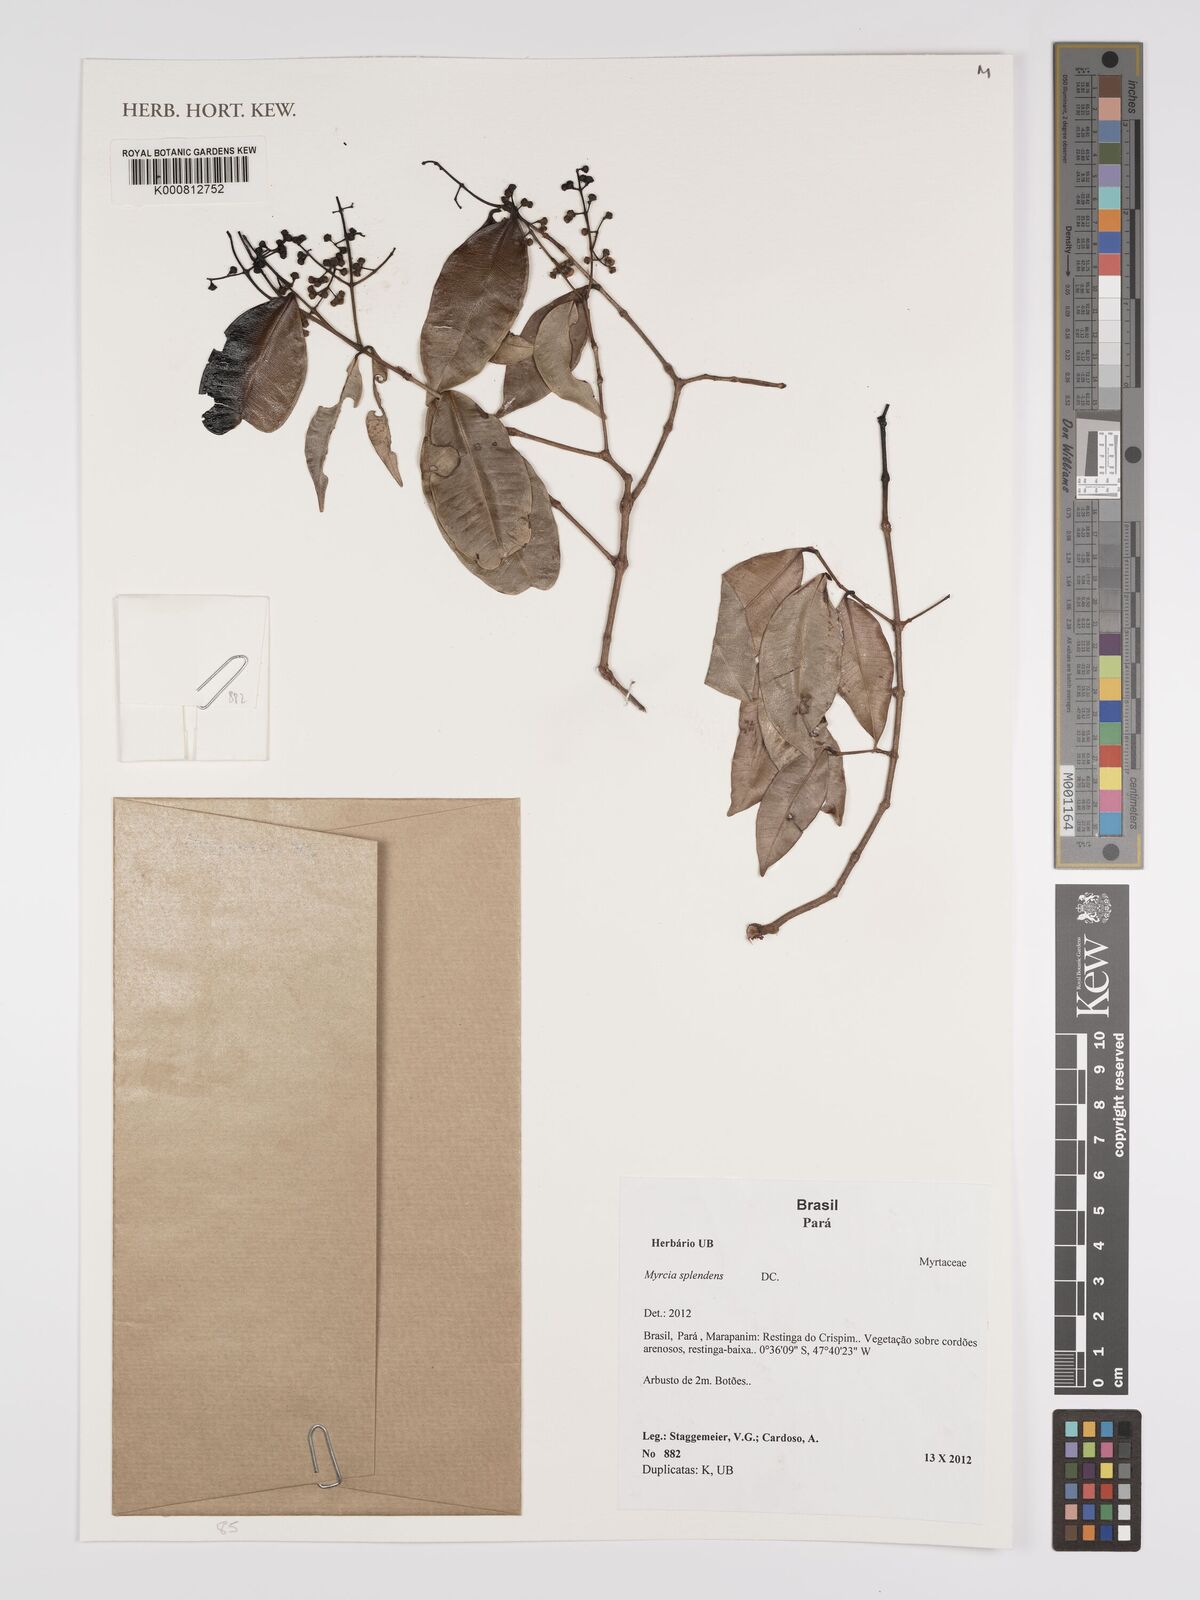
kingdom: Plantae
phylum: Tracheophyta
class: Magnoliopsida
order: Myrtales
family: Myrtaceae
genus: Myrcia
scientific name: Myrcia splendens
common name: Surinam cherry
